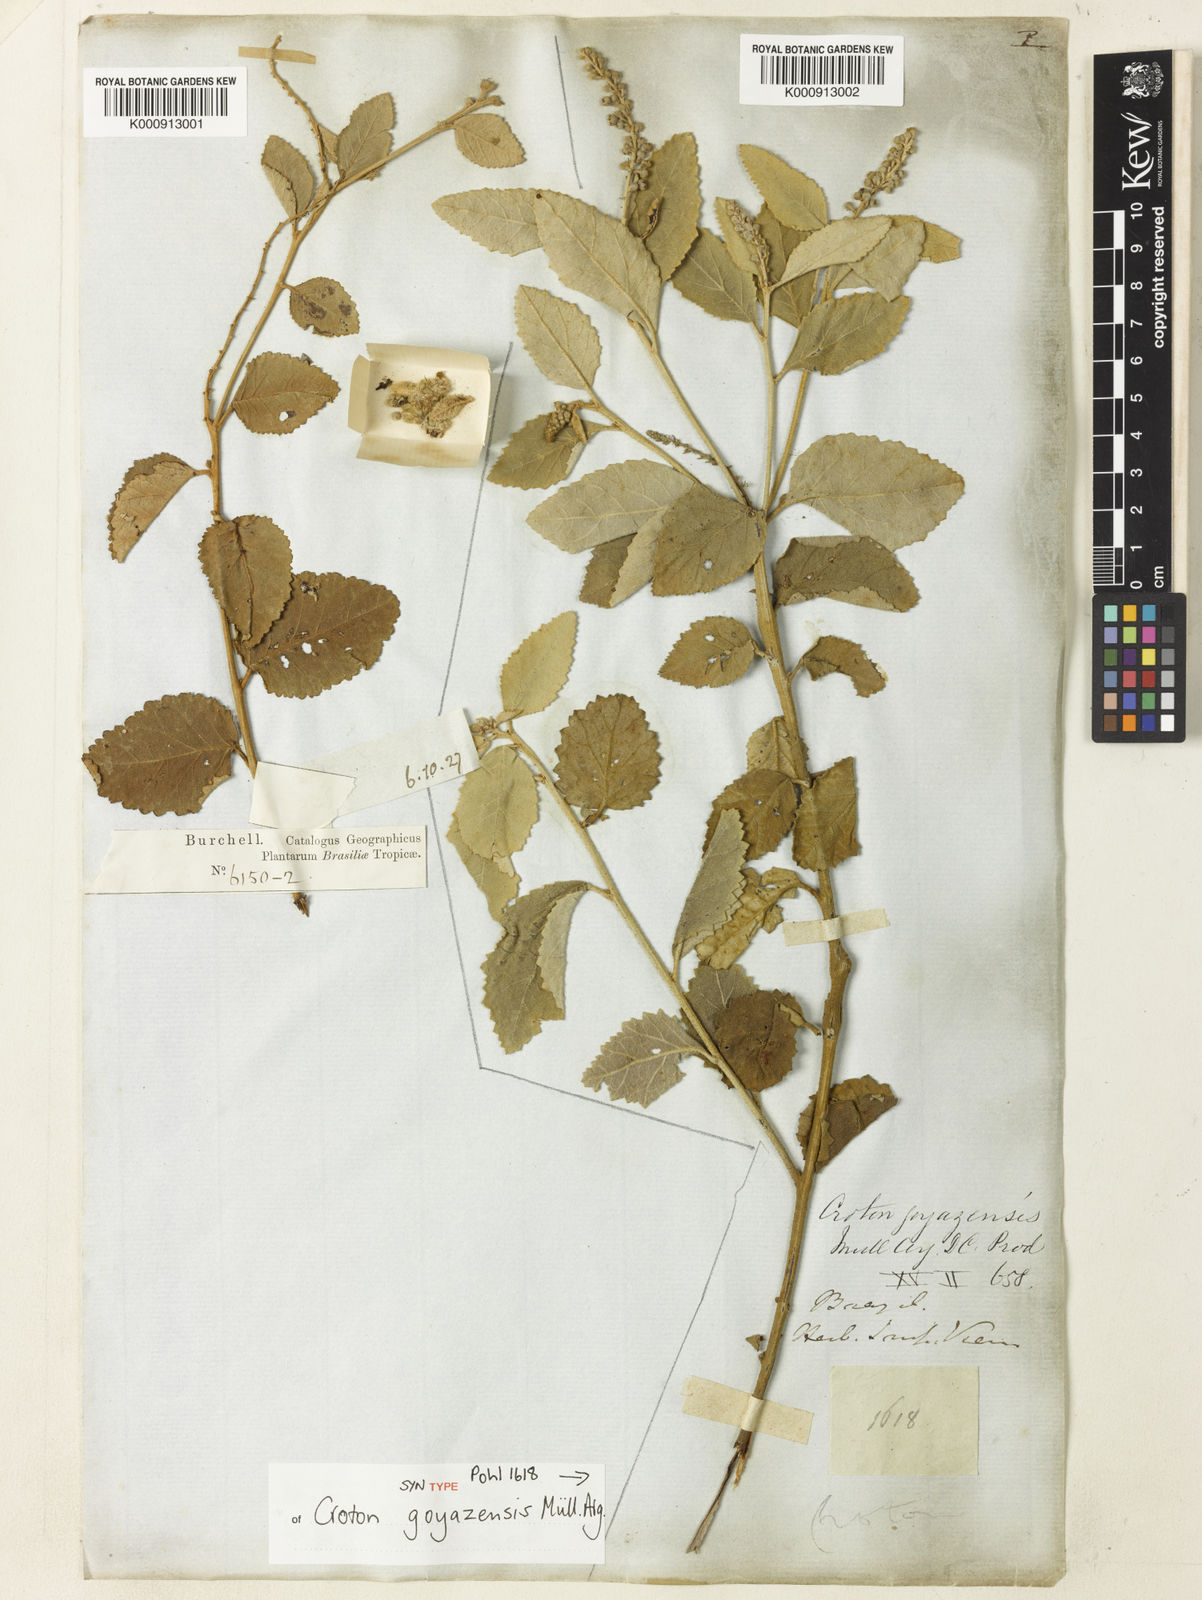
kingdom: Plantae
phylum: Tracheophyta
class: Magnoliopsida
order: Malpighiales
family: Euphorbiaceae
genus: Croton
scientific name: Croton
